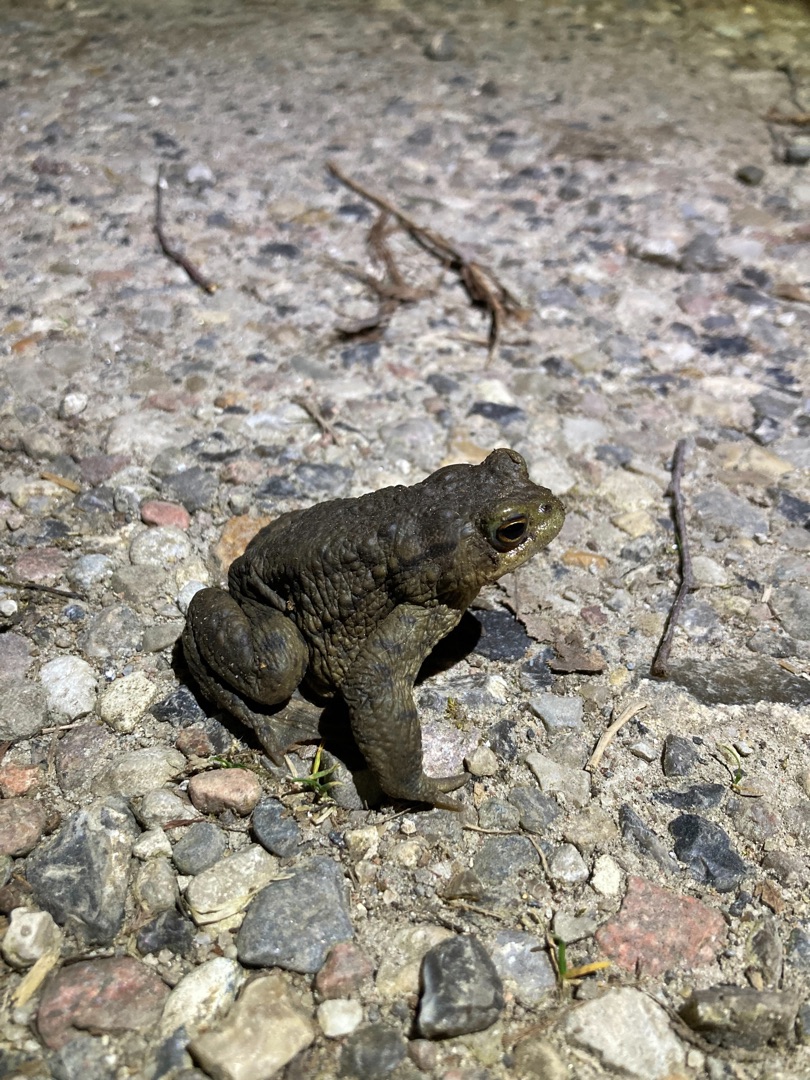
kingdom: Animalia
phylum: Chordata
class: Amphibia
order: Anura
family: Bufonidae
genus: Bufo
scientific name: Bufo bufo
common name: Skrubtudse
